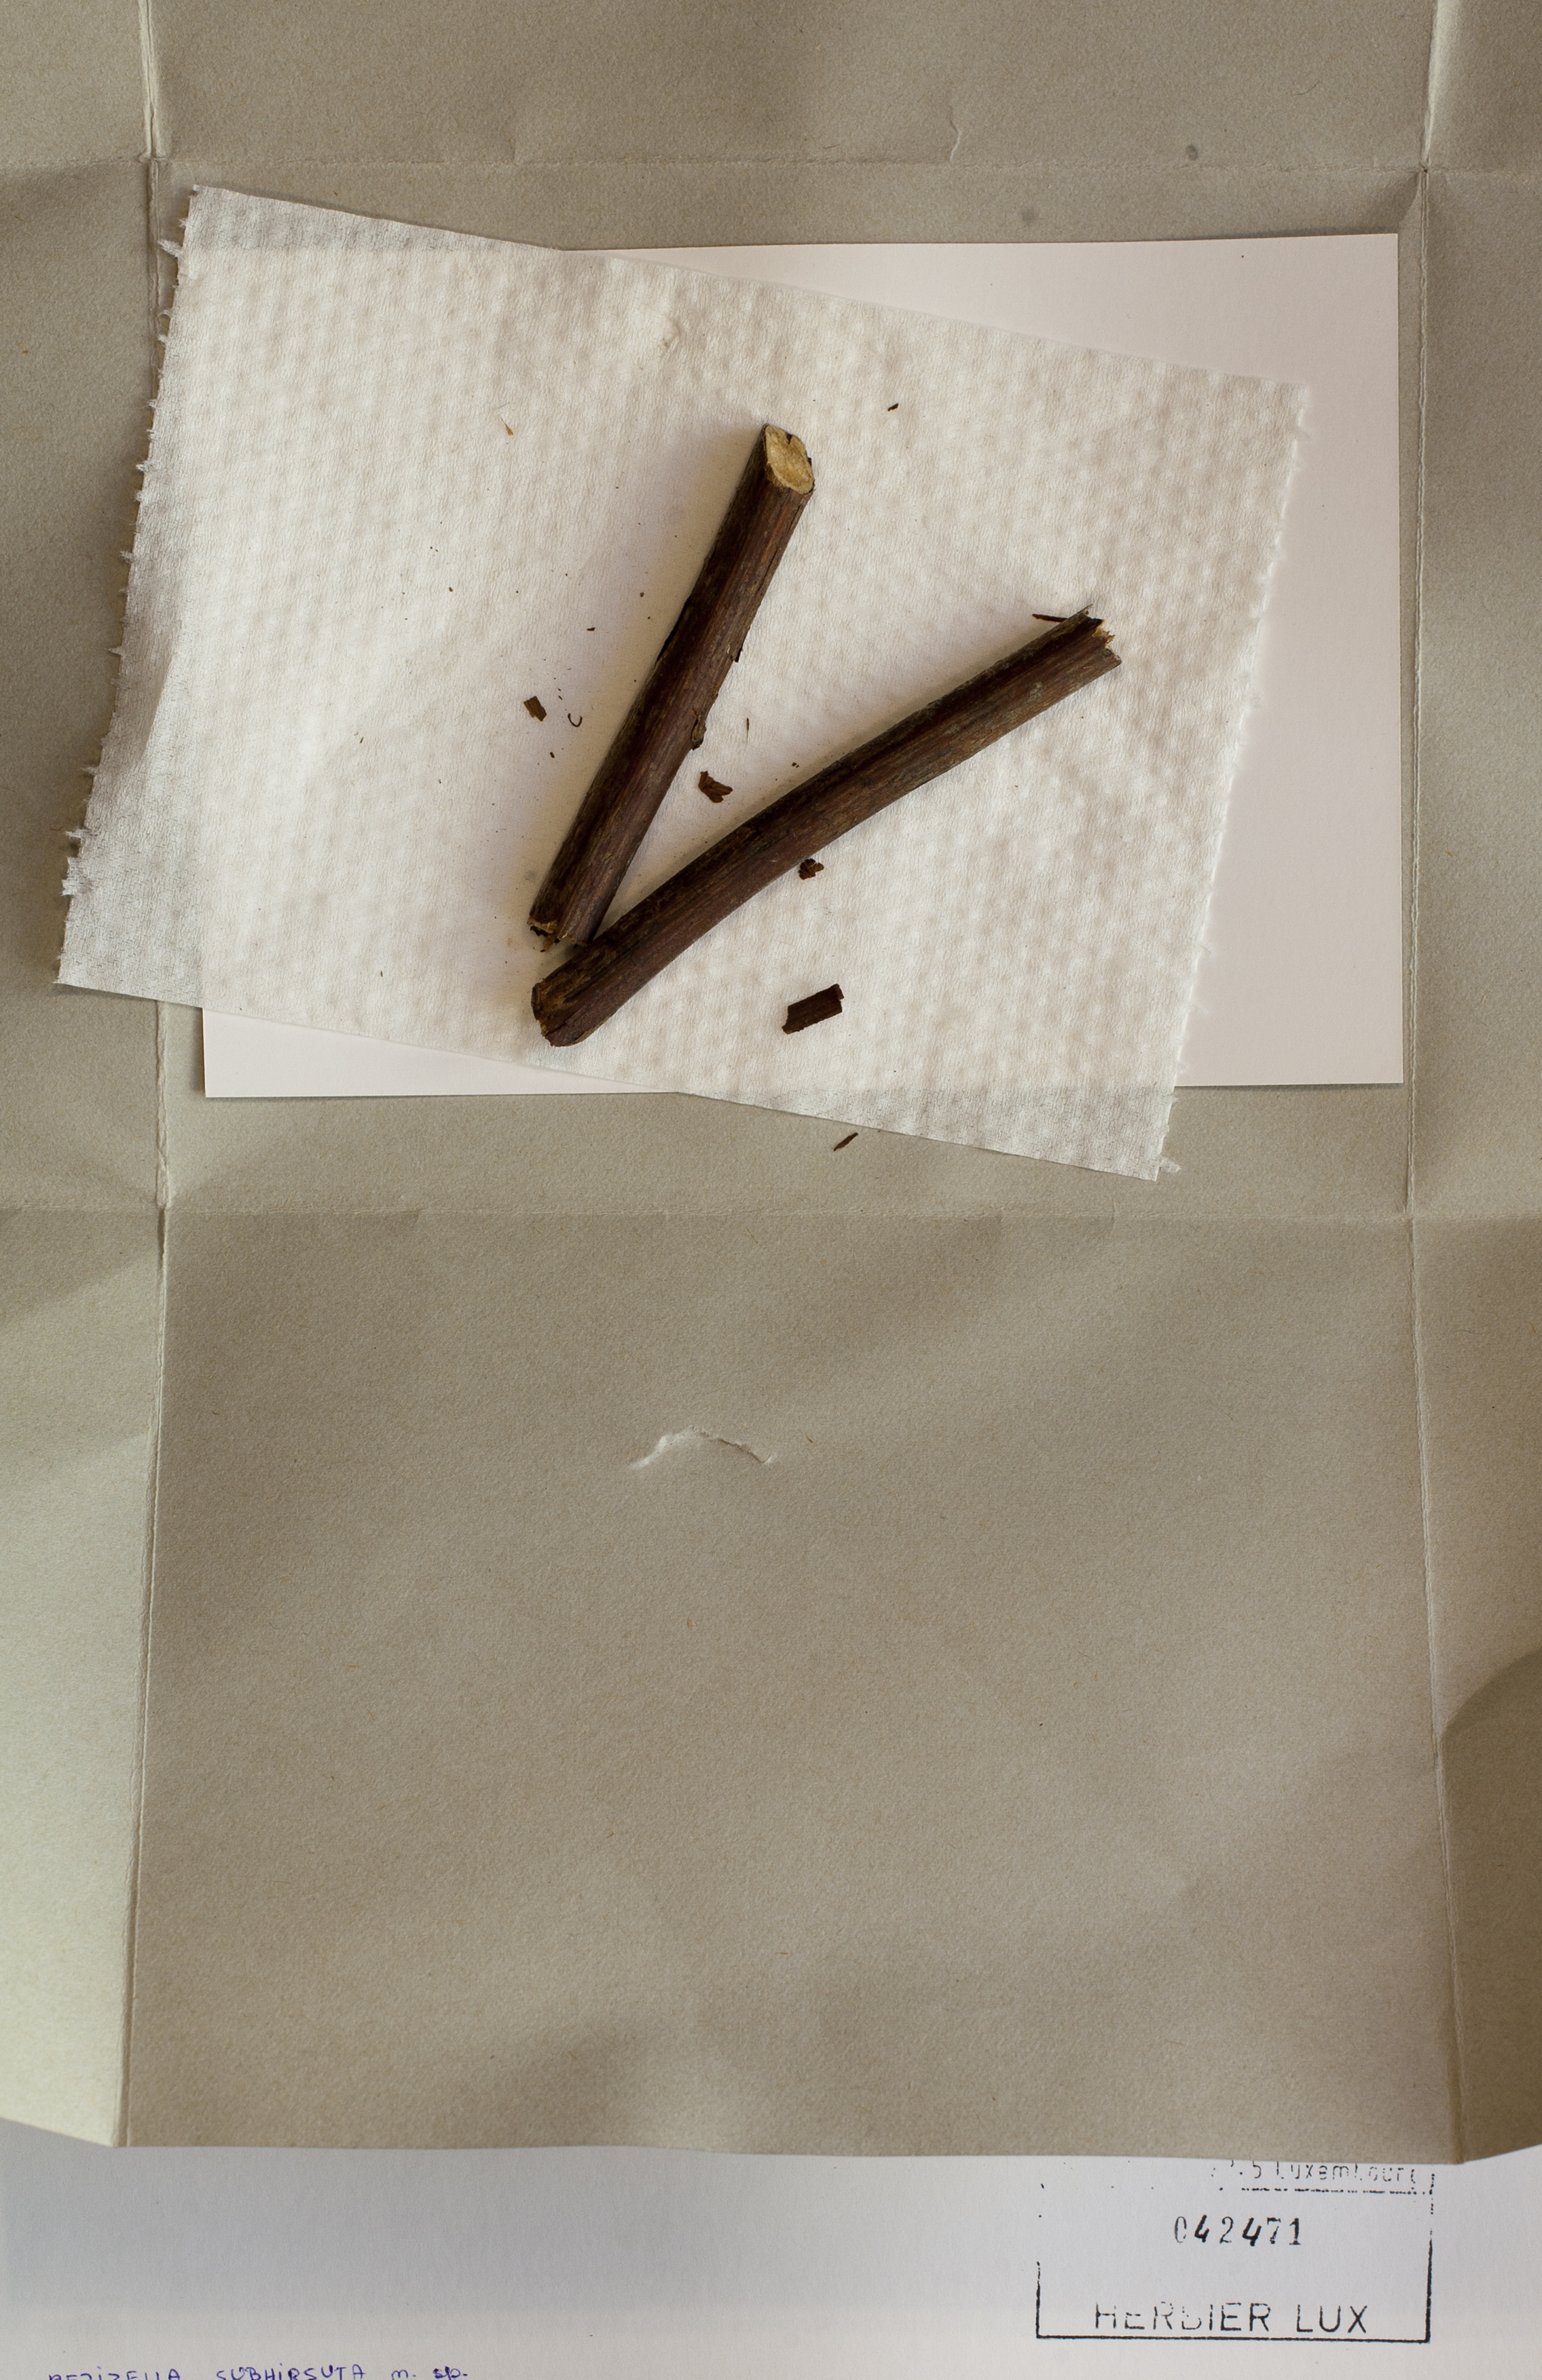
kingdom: Fungi
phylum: Ascomycota
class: Leotiomycetes
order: Helotiales
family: Lachnaceae
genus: Trichopeziza
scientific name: Trichopeziza subhirsuta
